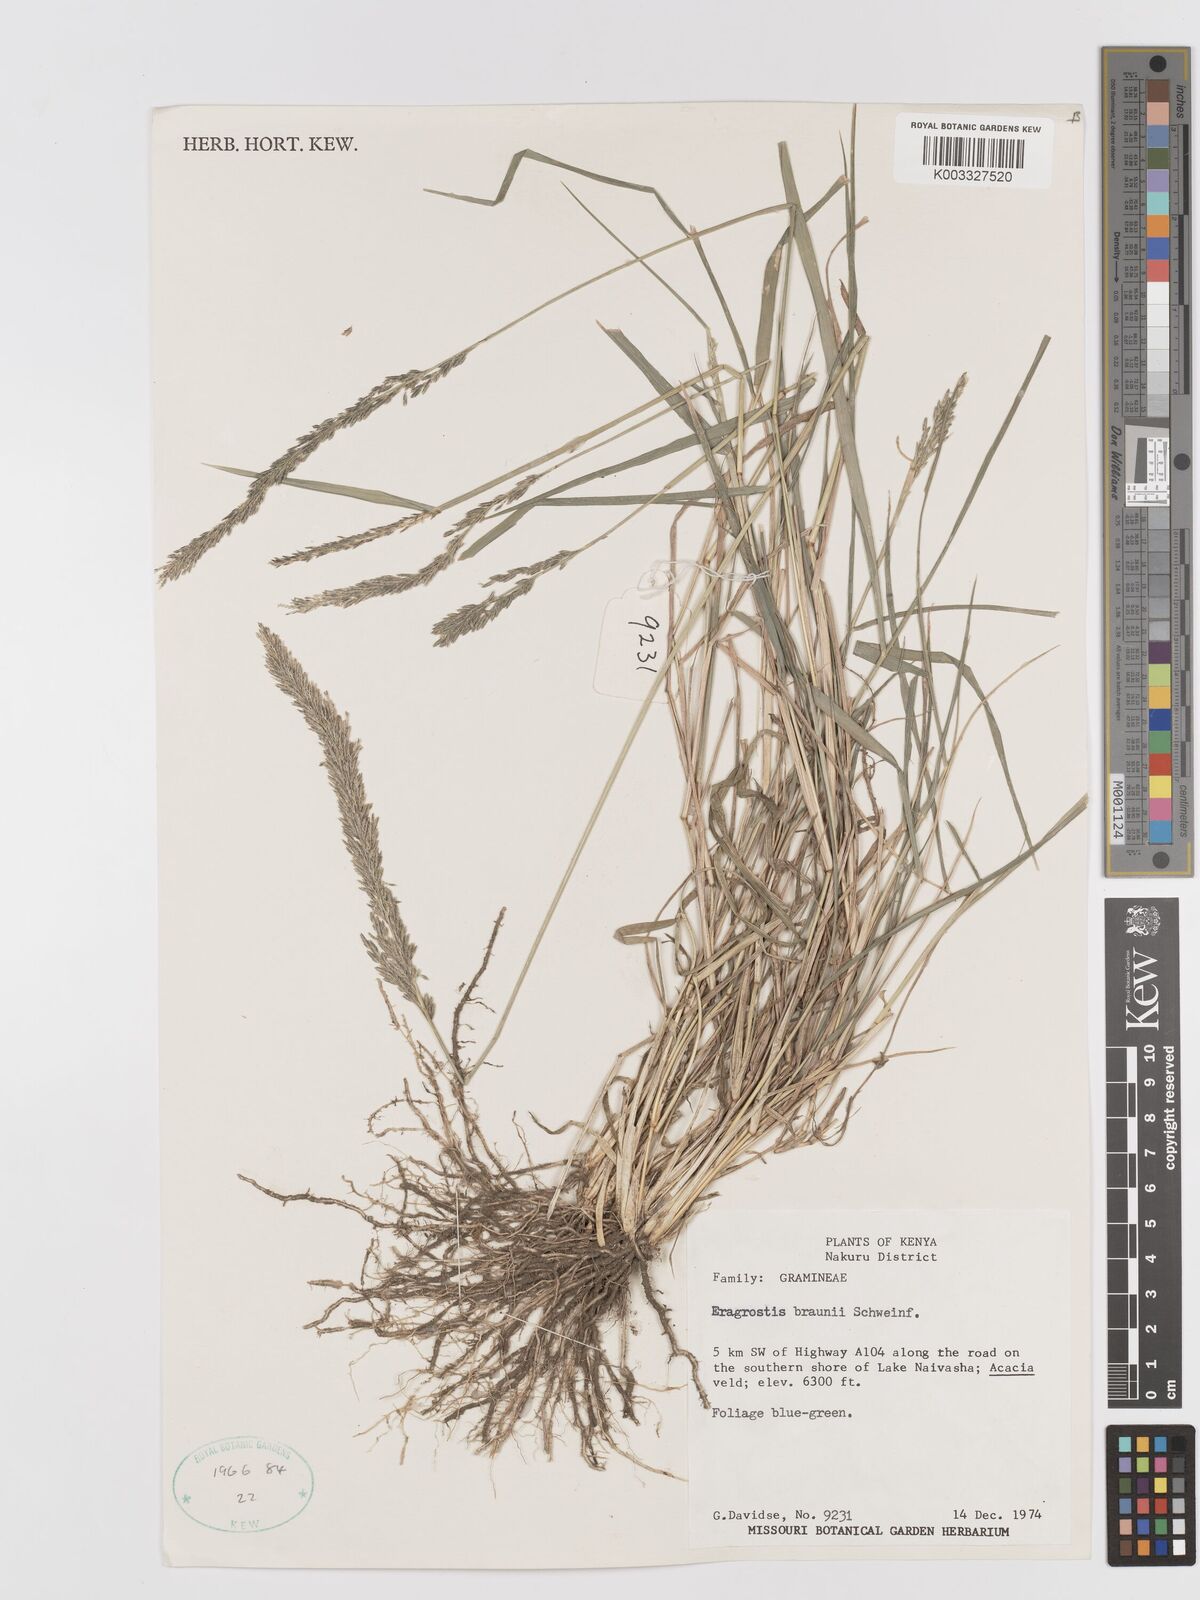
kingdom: Plantae
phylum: Tracheophyta
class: Liliopsida
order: Poales
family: Poaceae
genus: Eragrostis
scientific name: Eragrostis braunii
